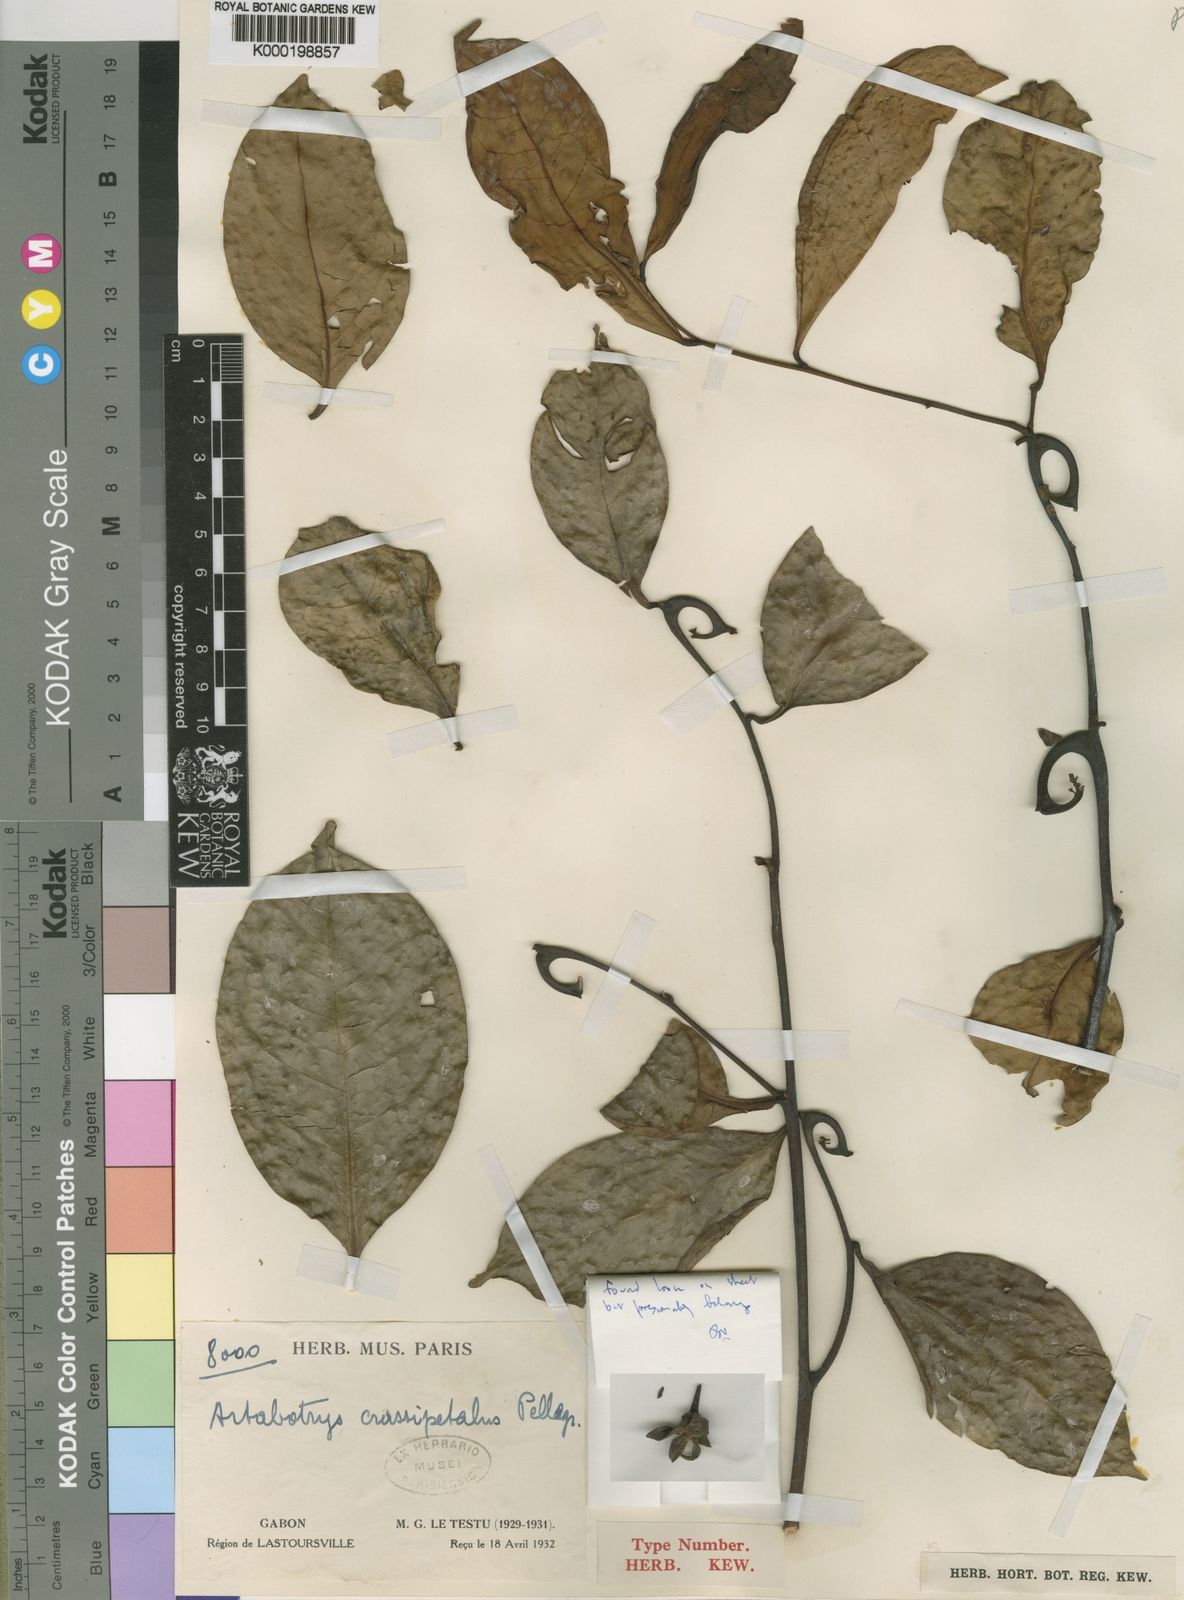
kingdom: Plantae
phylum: Tracheophyta
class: Magnoliopsida
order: Magnoliales
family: Annonaceae
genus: Artabotrys
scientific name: Artabotrys crassipetalus
